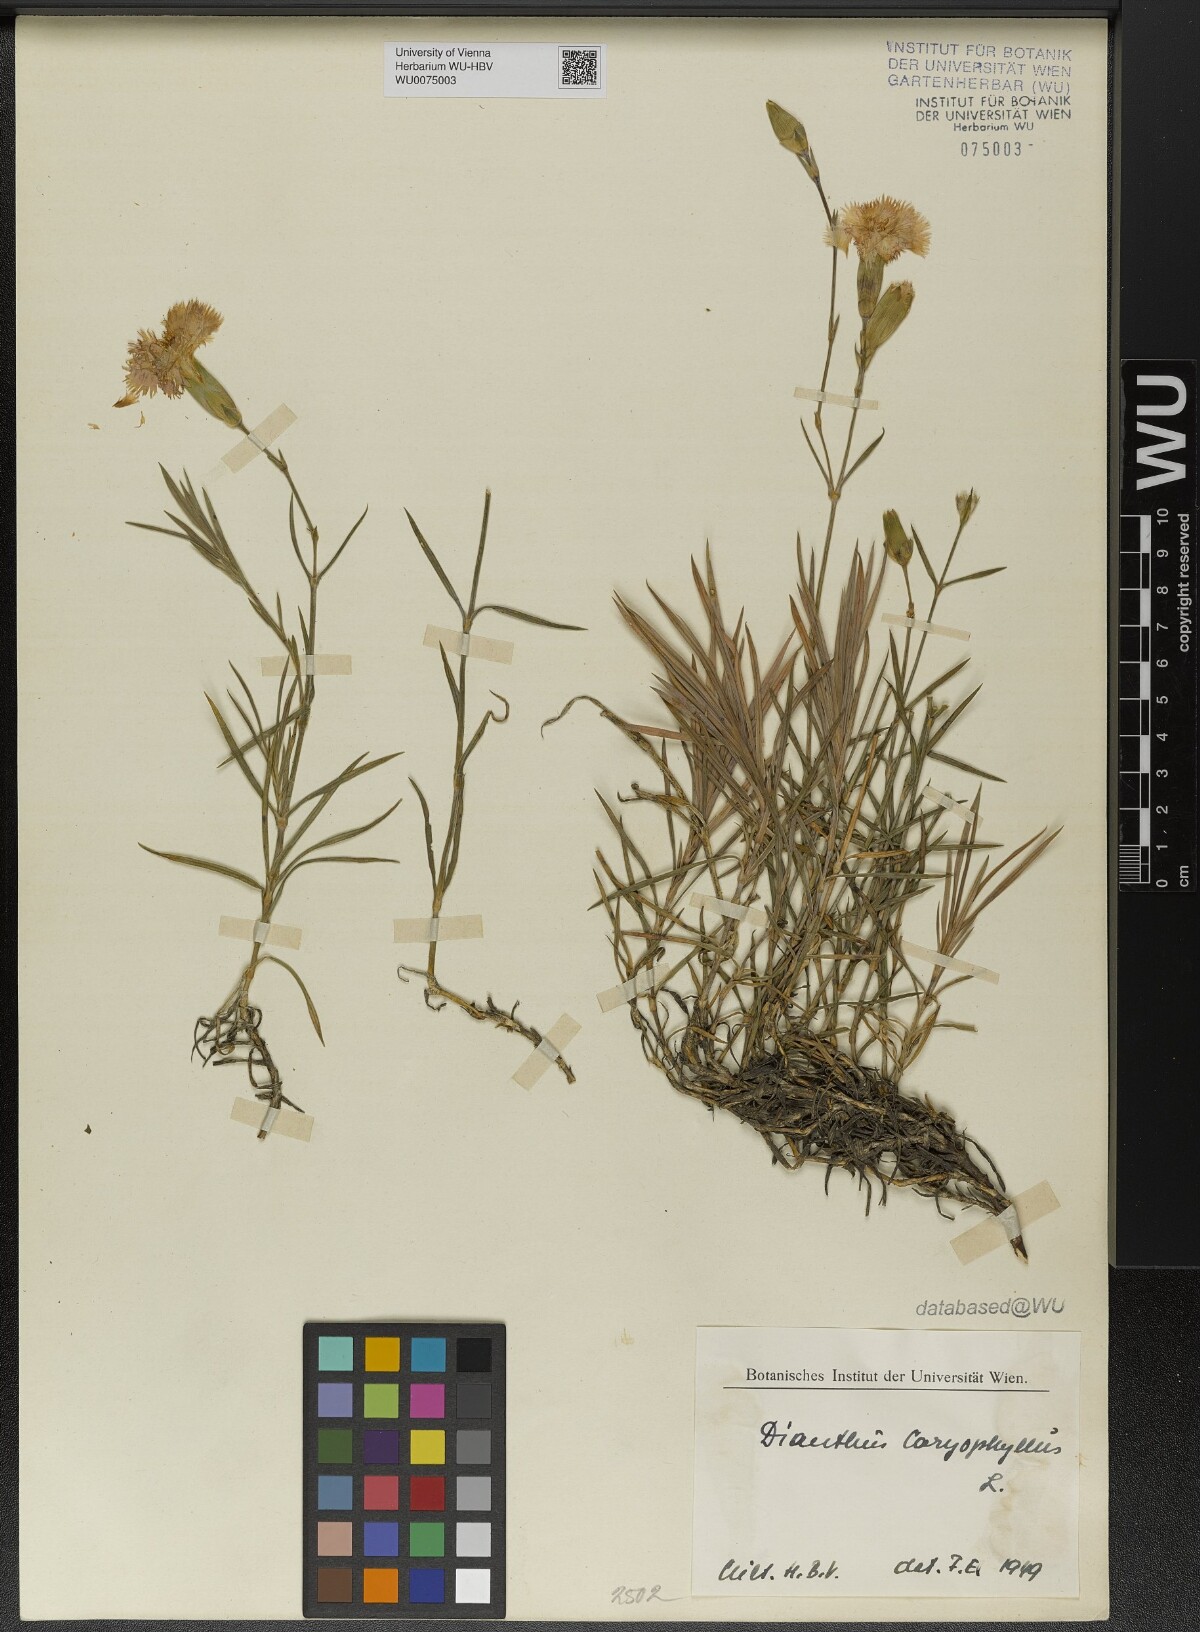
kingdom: Plantae
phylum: Tracheophyta
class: Magnoliopsida
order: Caryophyllales
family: Caryophyllaceae
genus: Dianthus
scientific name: Dianthus caryophyllus
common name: Clove pink
